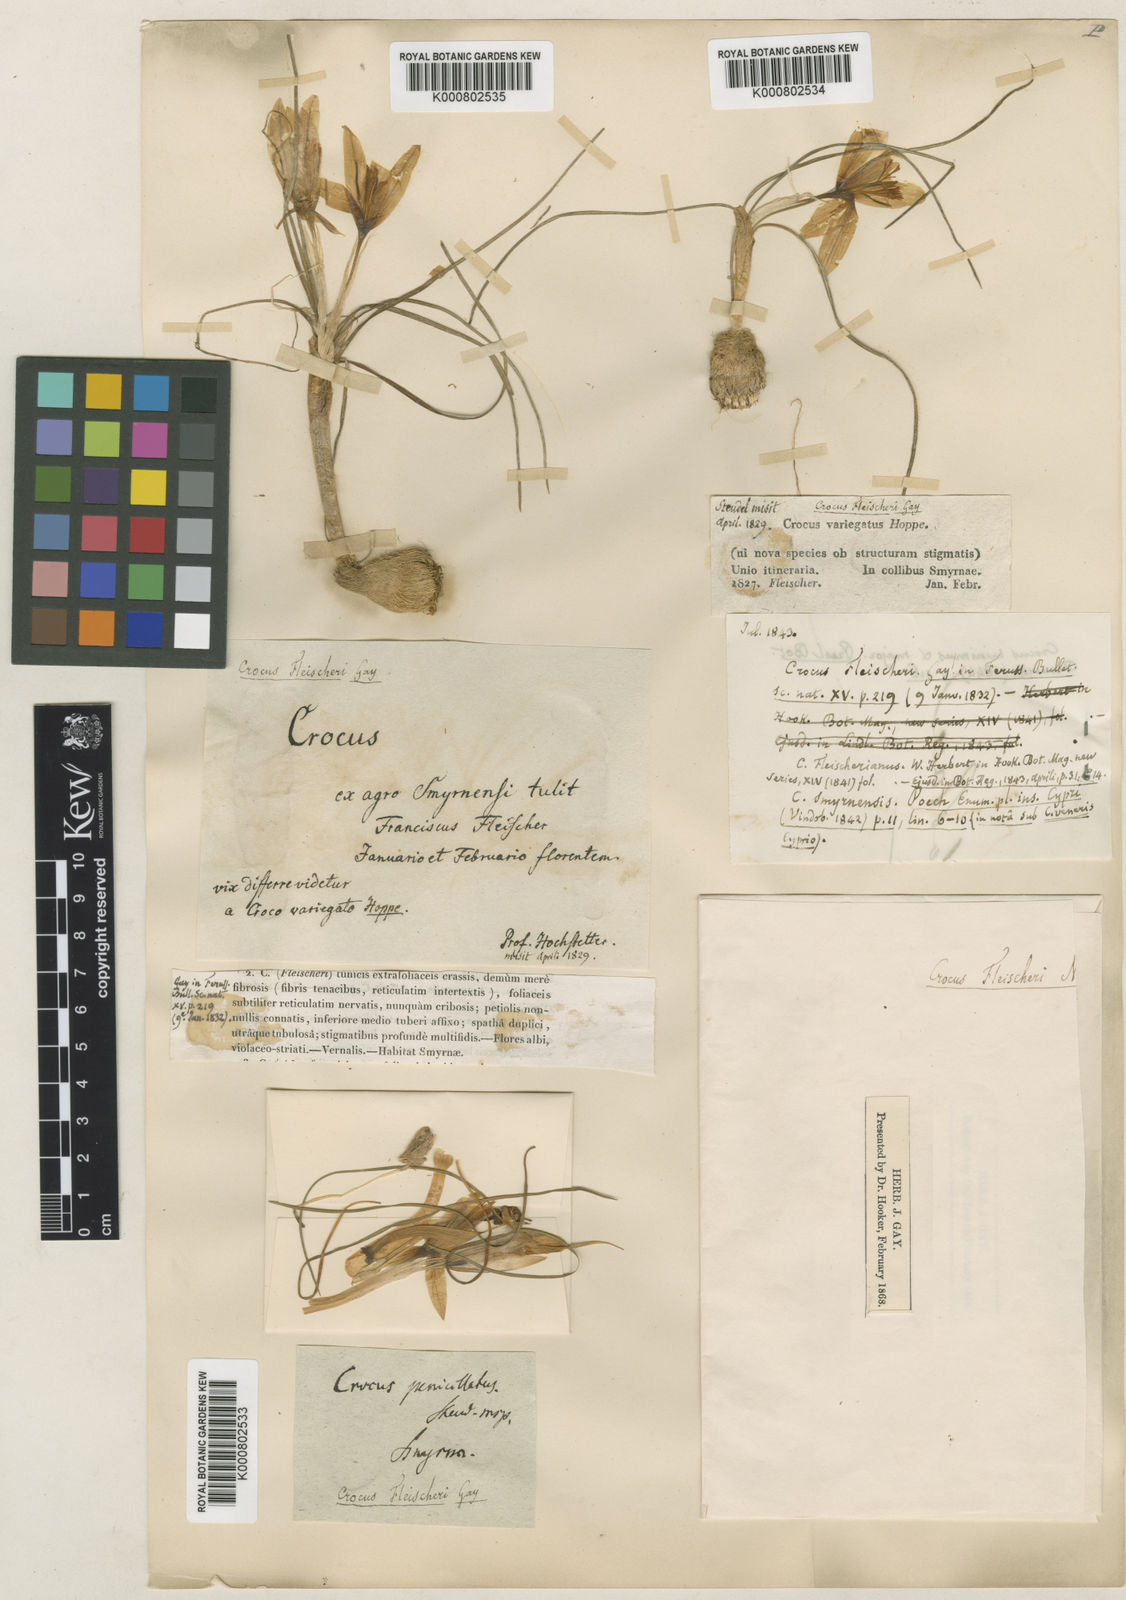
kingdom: Plantae
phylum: Tracheophyta
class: Liliopsida
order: Asparagales
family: Iridaceae
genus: Crocus
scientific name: Crocus fleischeri
